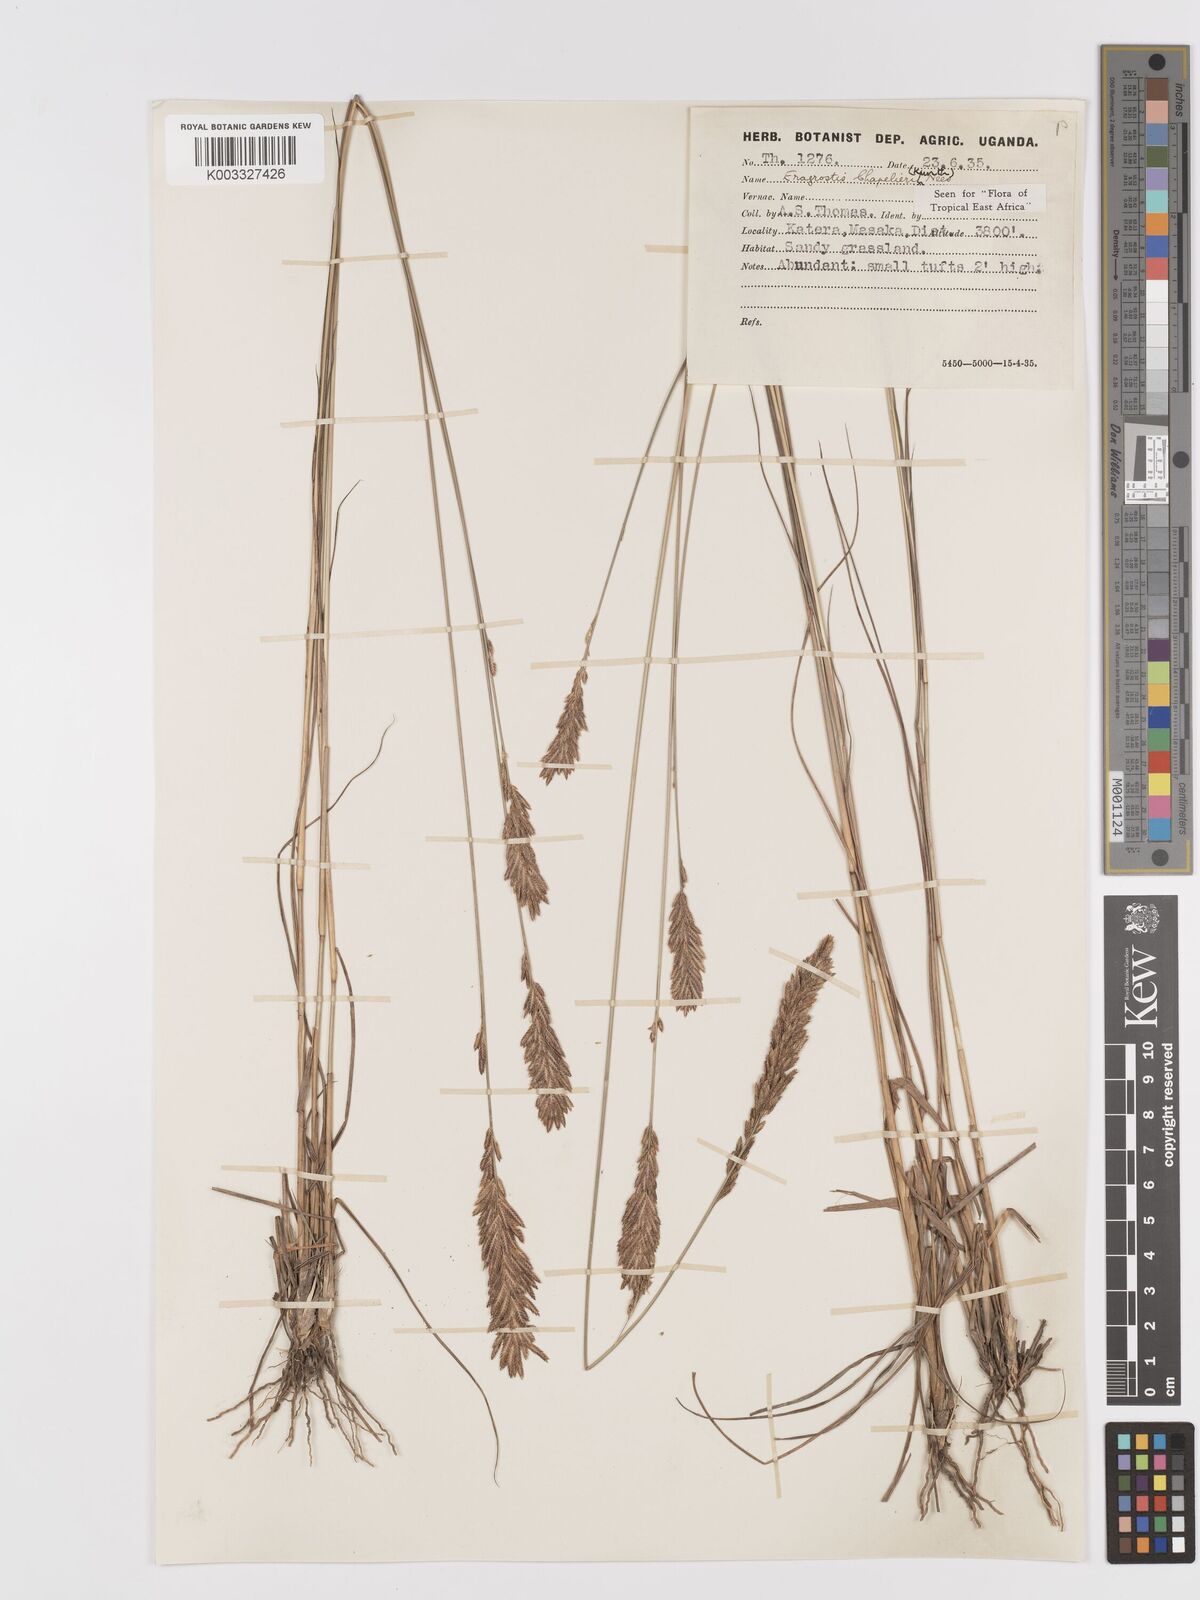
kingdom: Plantae
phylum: Tracheophyta
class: Liliopsida
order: Poales
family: Poaceae
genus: Eragrostis
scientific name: Eragrostis chapelieri
